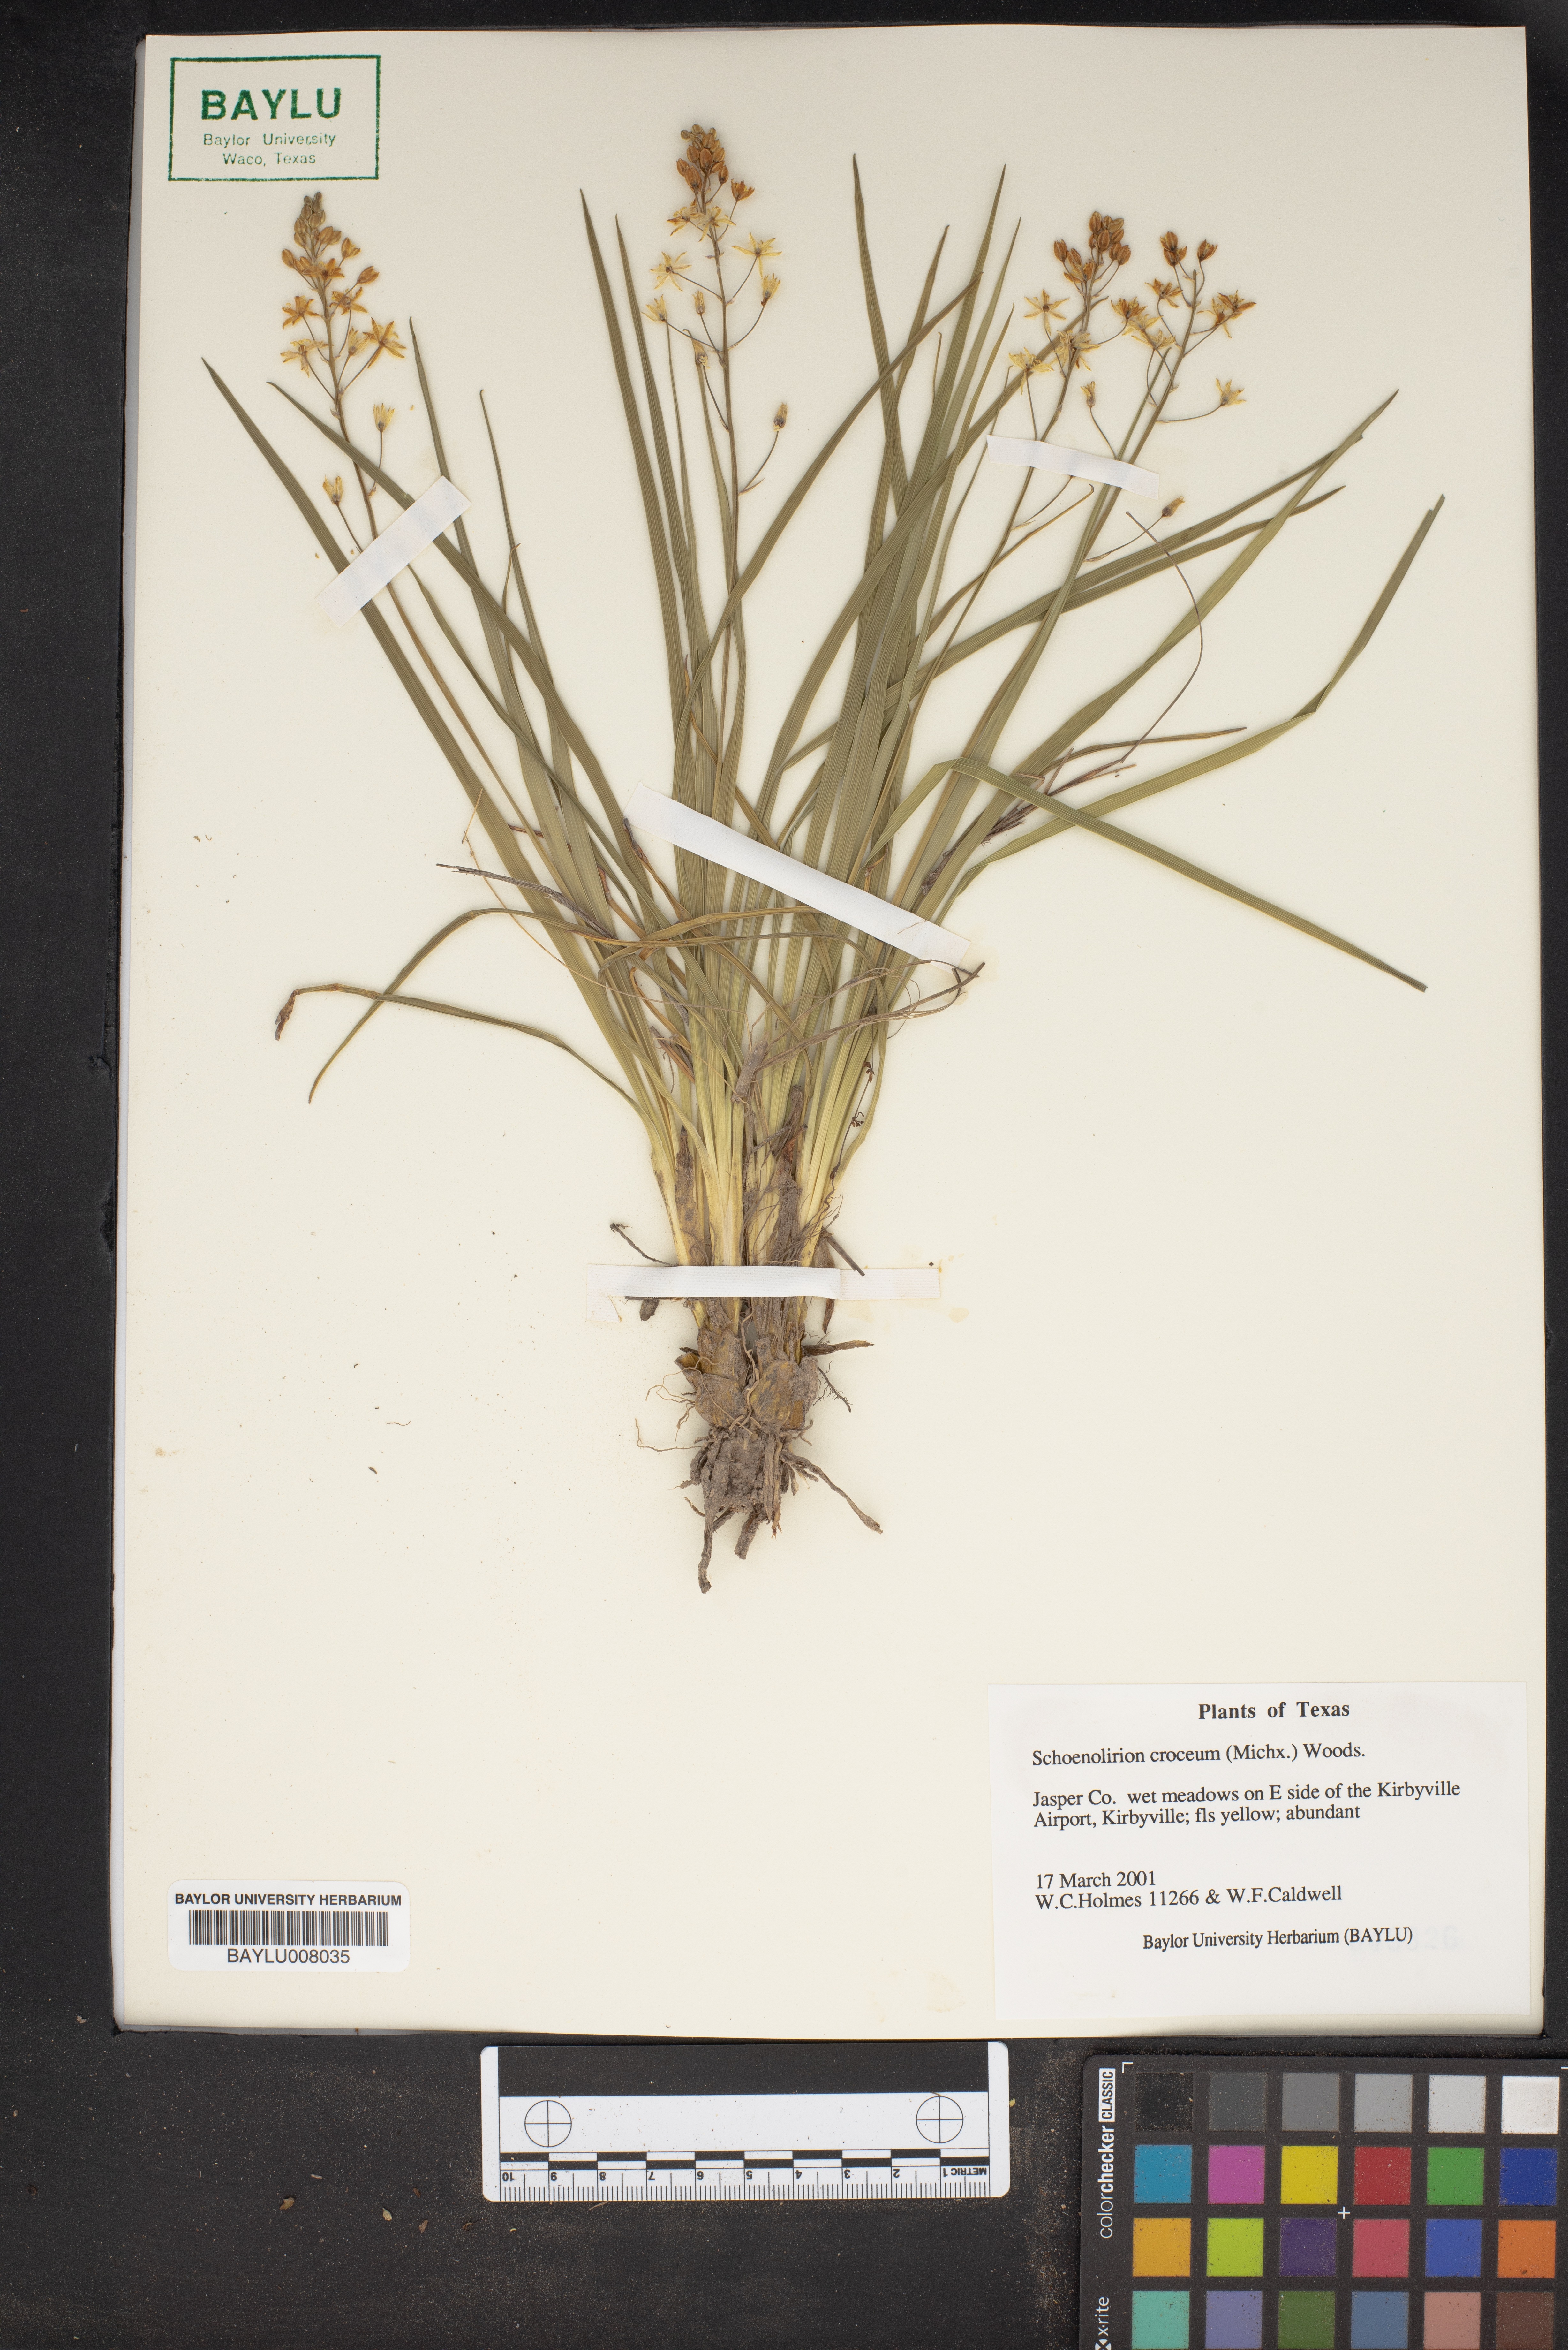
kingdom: Plantae
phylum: Tracheophyta
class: Liliopsida
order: Asparagales
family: Asparagaceae
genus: Schoenolirion
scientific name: Schoenolirion croceum
